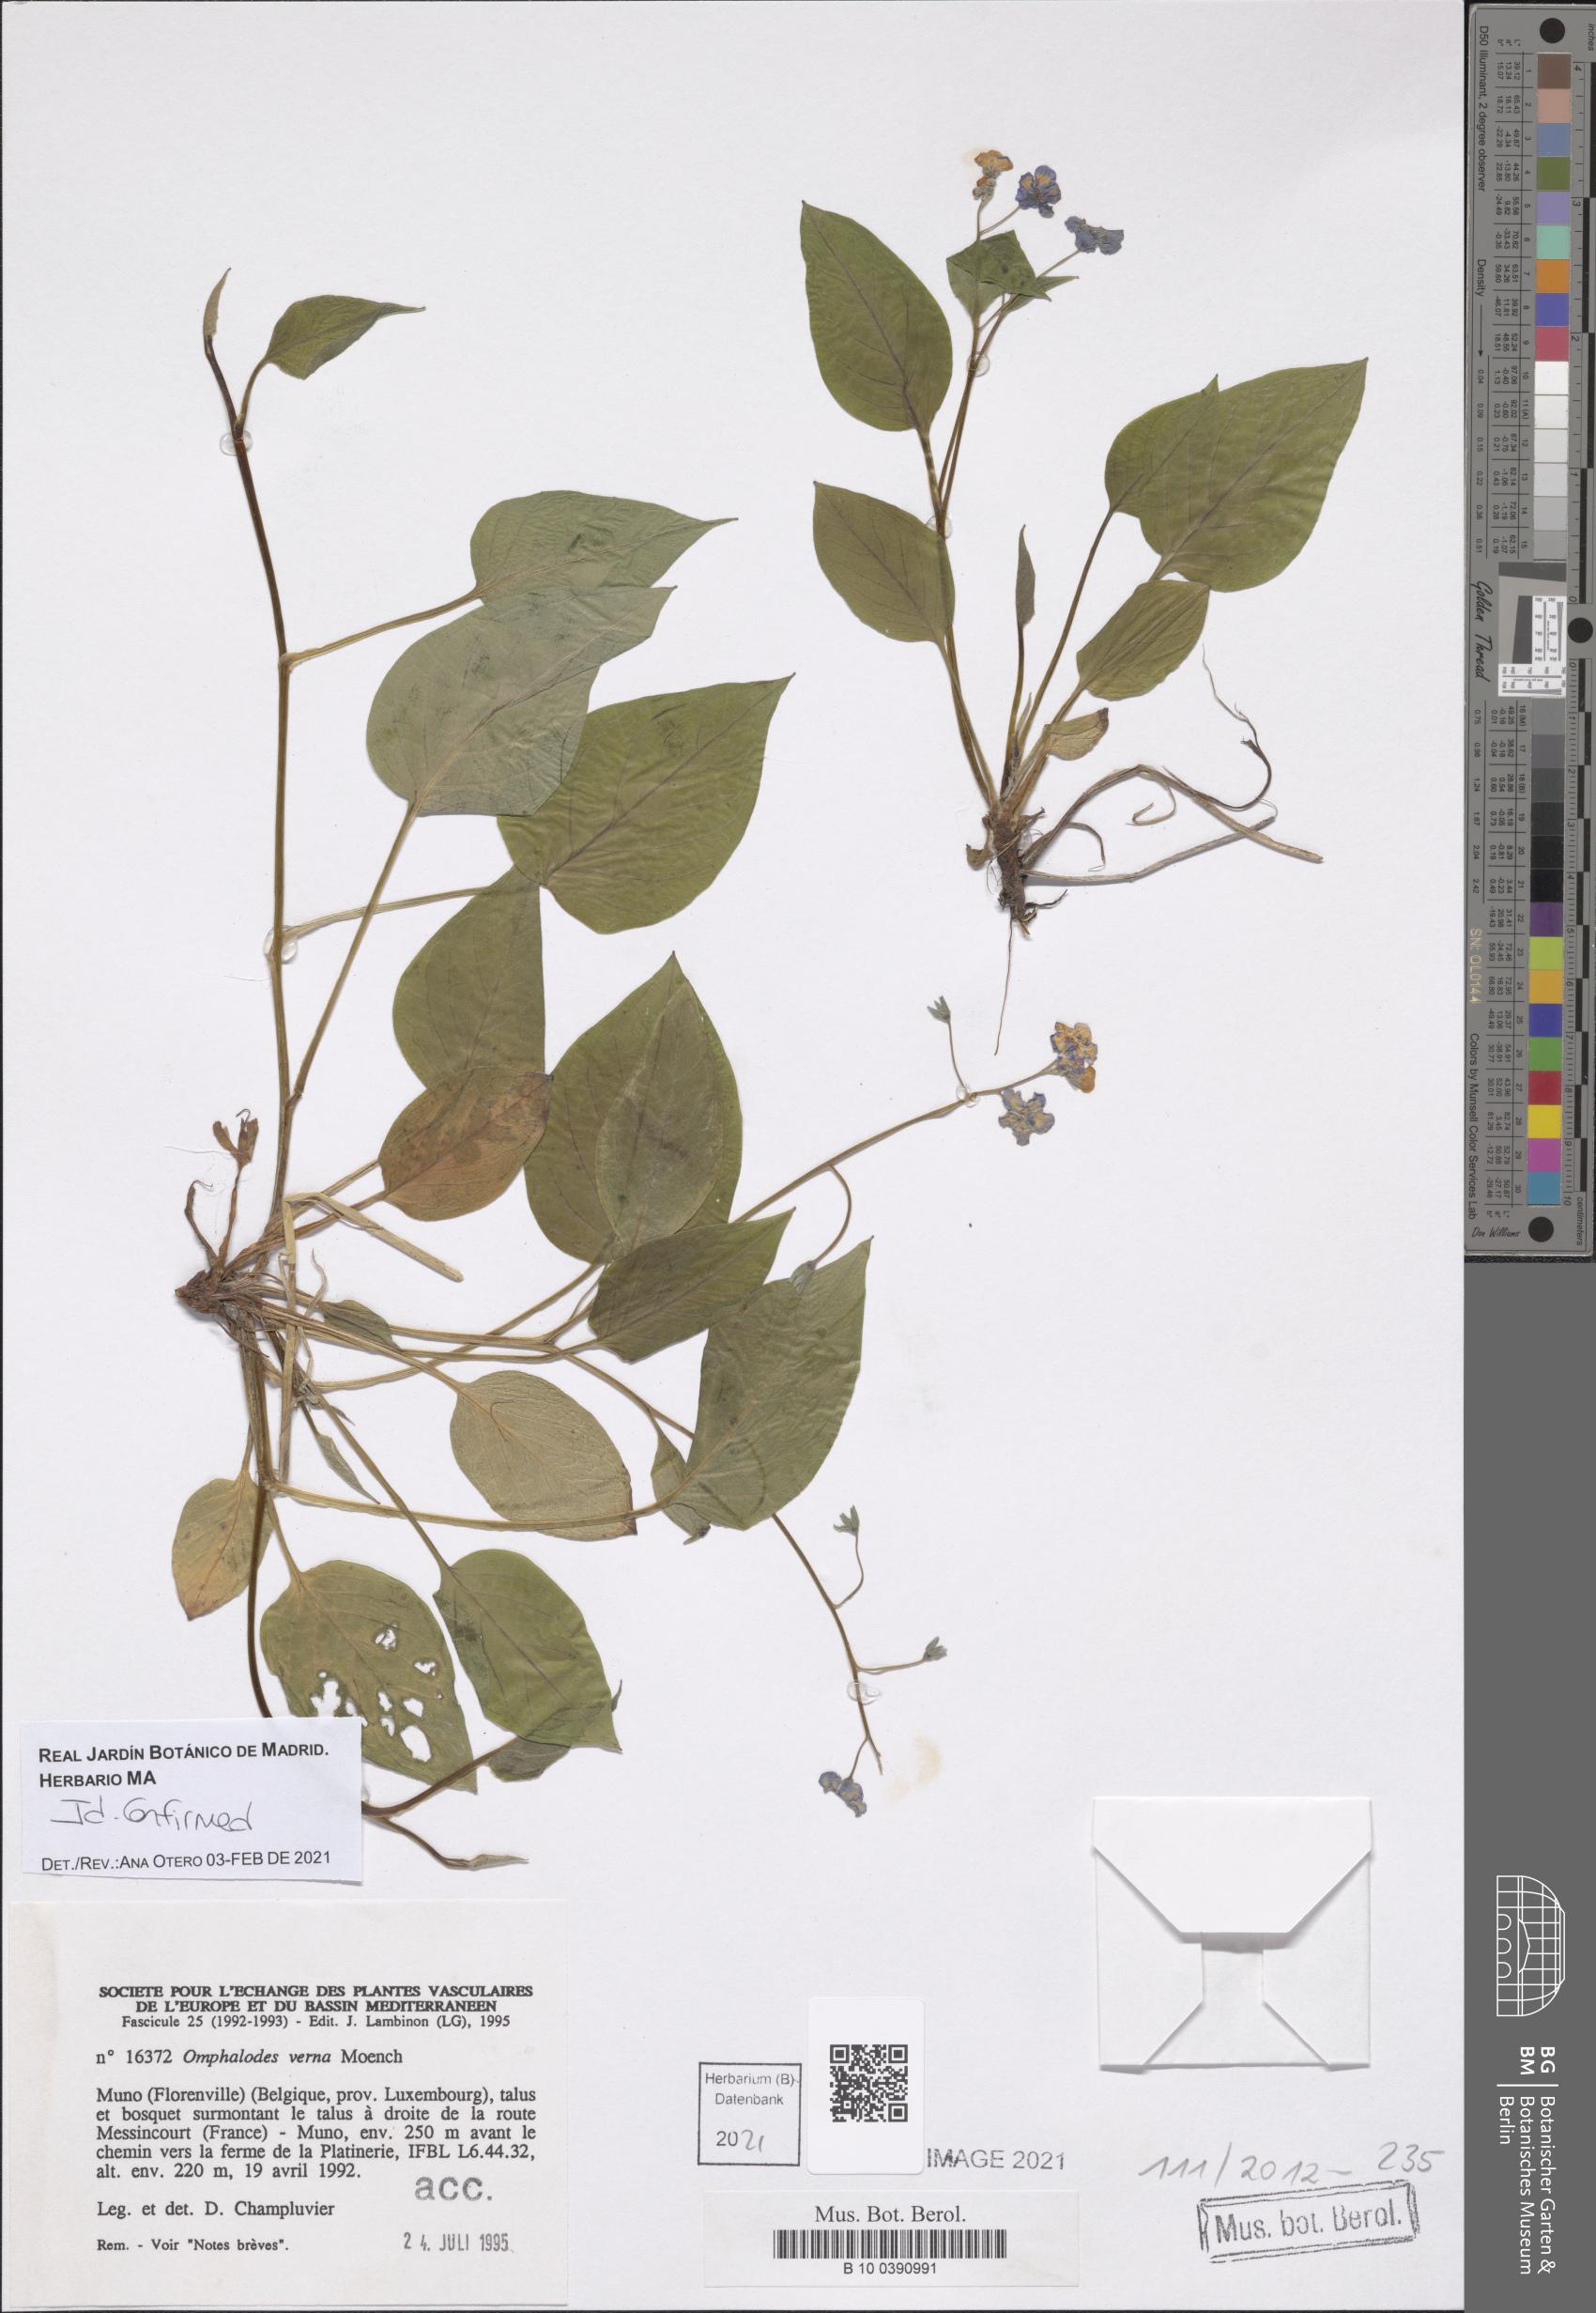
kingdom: Plantae
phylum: Tracheophyta
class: Magnoliopsida
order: Boraginales
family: Boraginaceae
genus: Omphalodes
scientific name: Omphalodes verna
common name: Blue-eyed-mary
